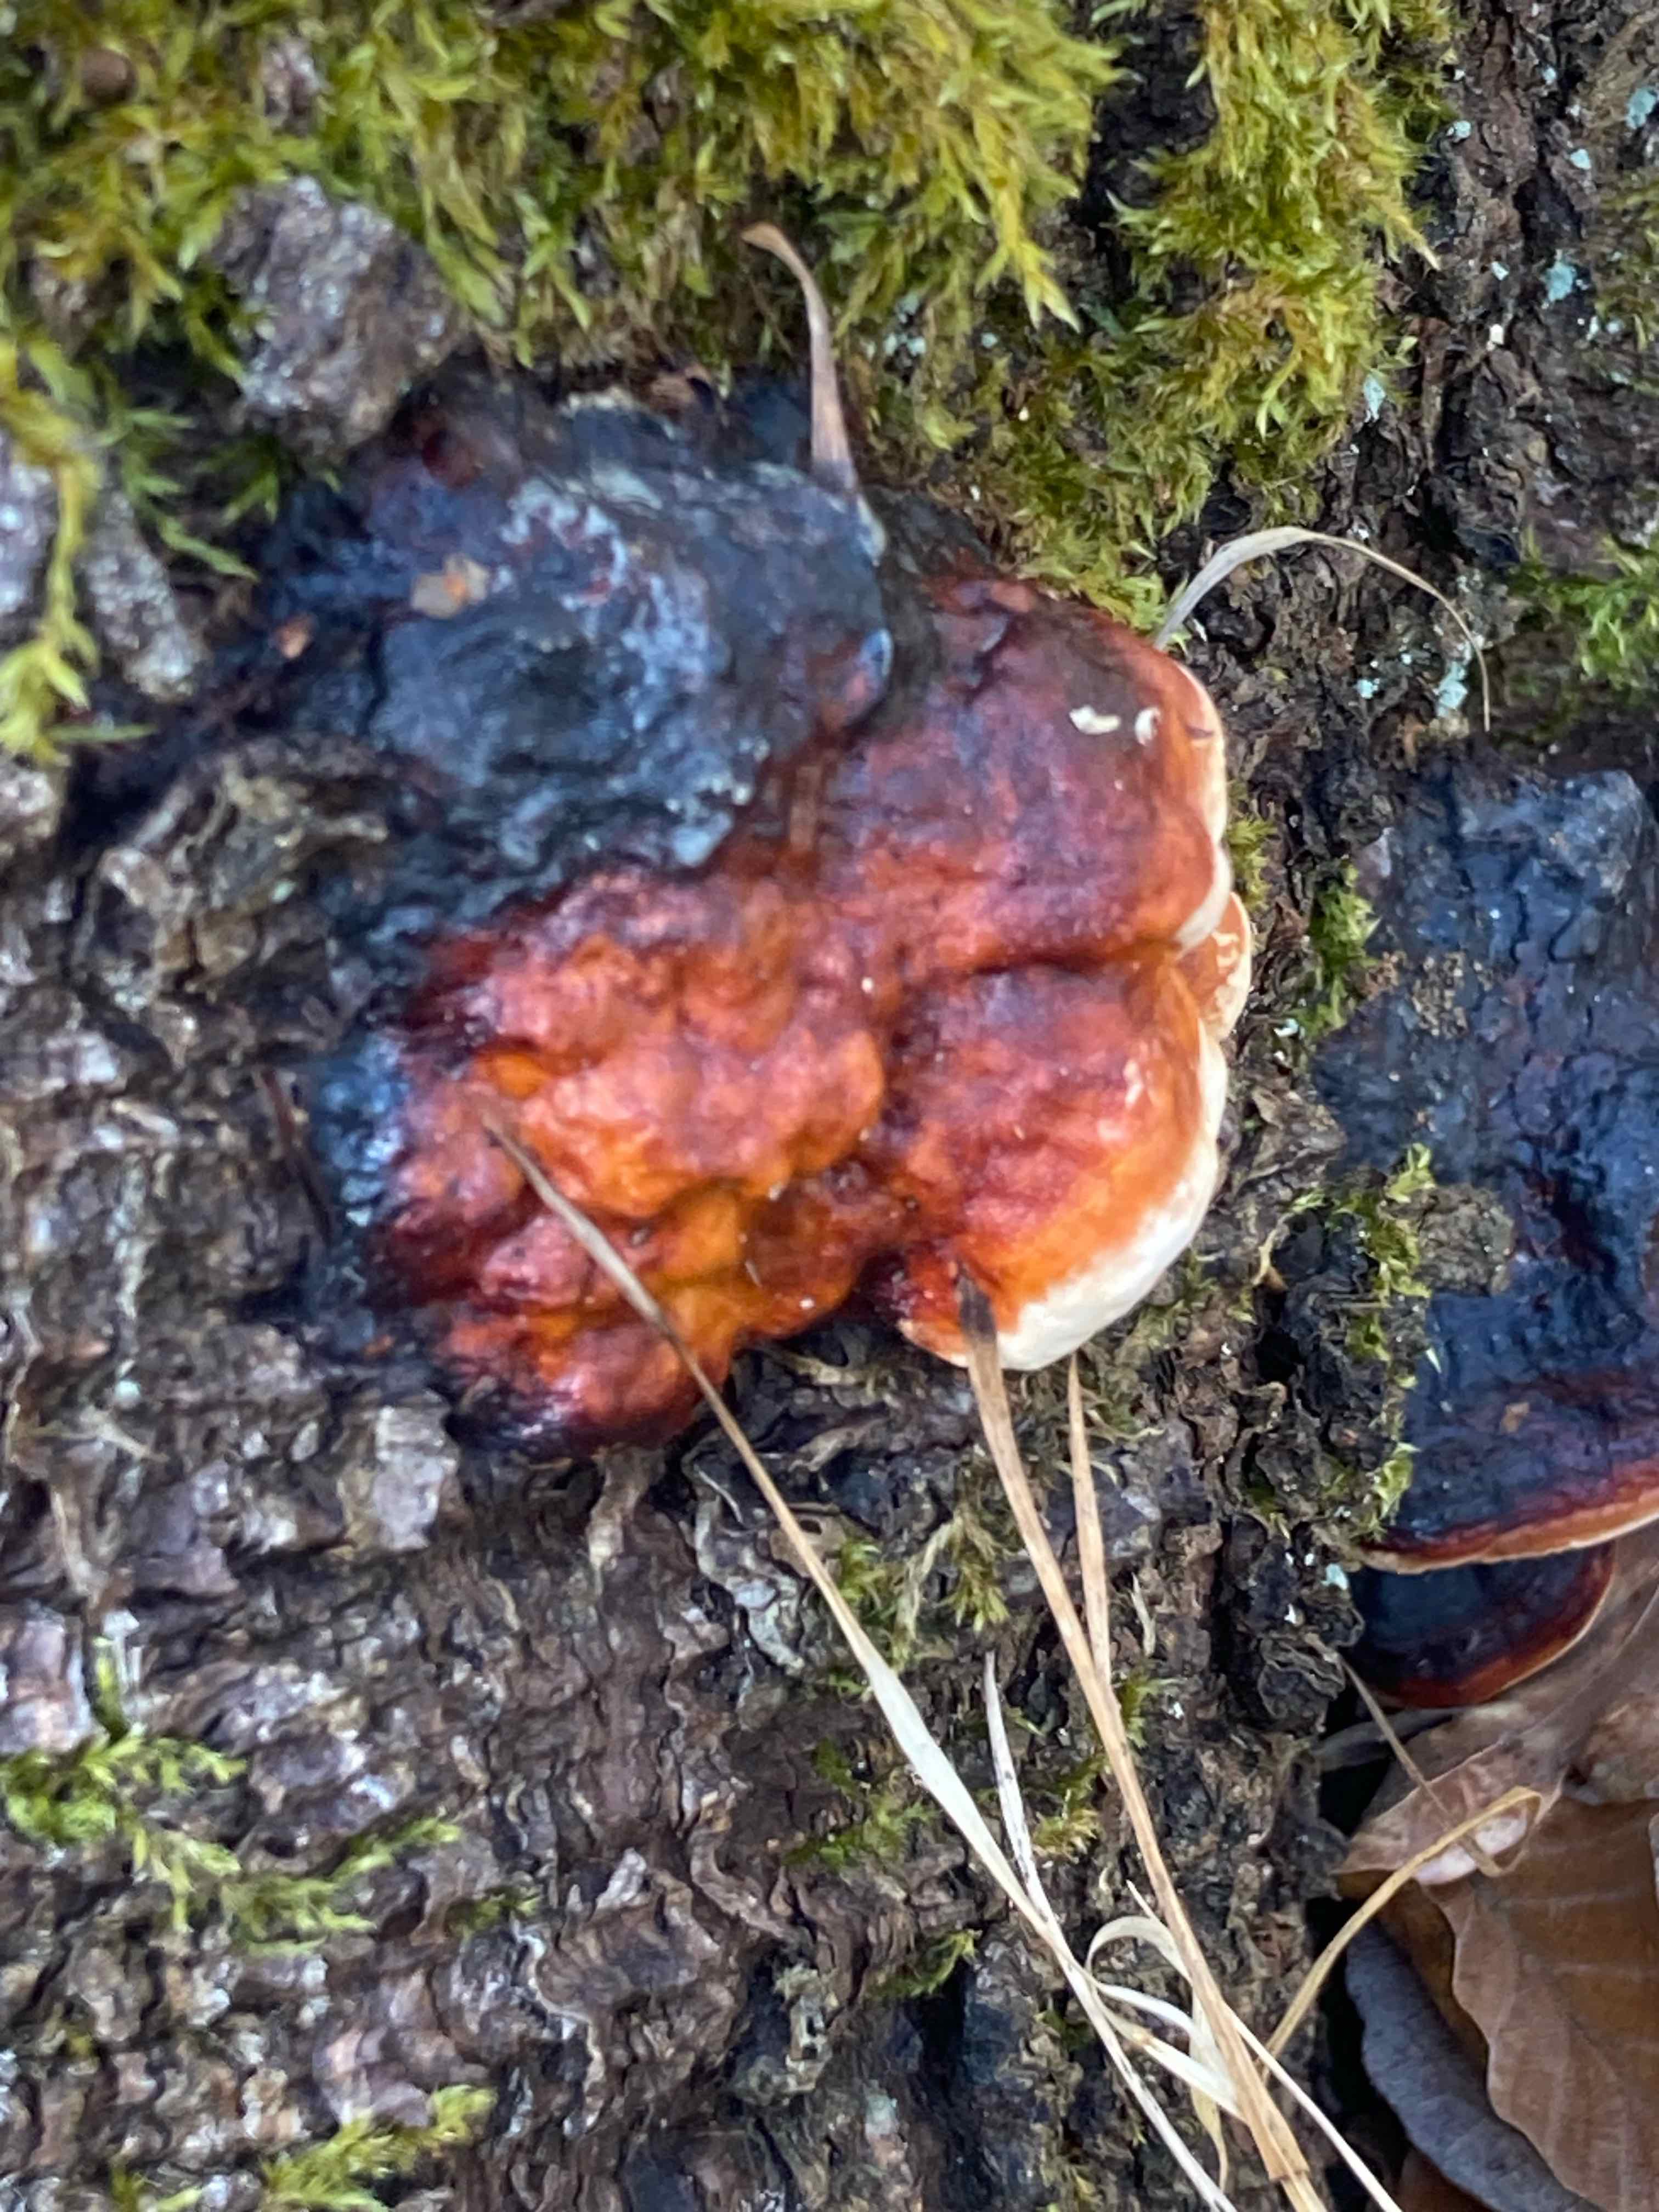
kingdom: Fungi
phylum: Basidiomycota
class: Agaricomycetes
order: Polyporales
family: Fomitopsidaceae
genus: Fomitopsis
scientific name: Fomitopsis pinicola
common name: randbæltet hovporesvamp
